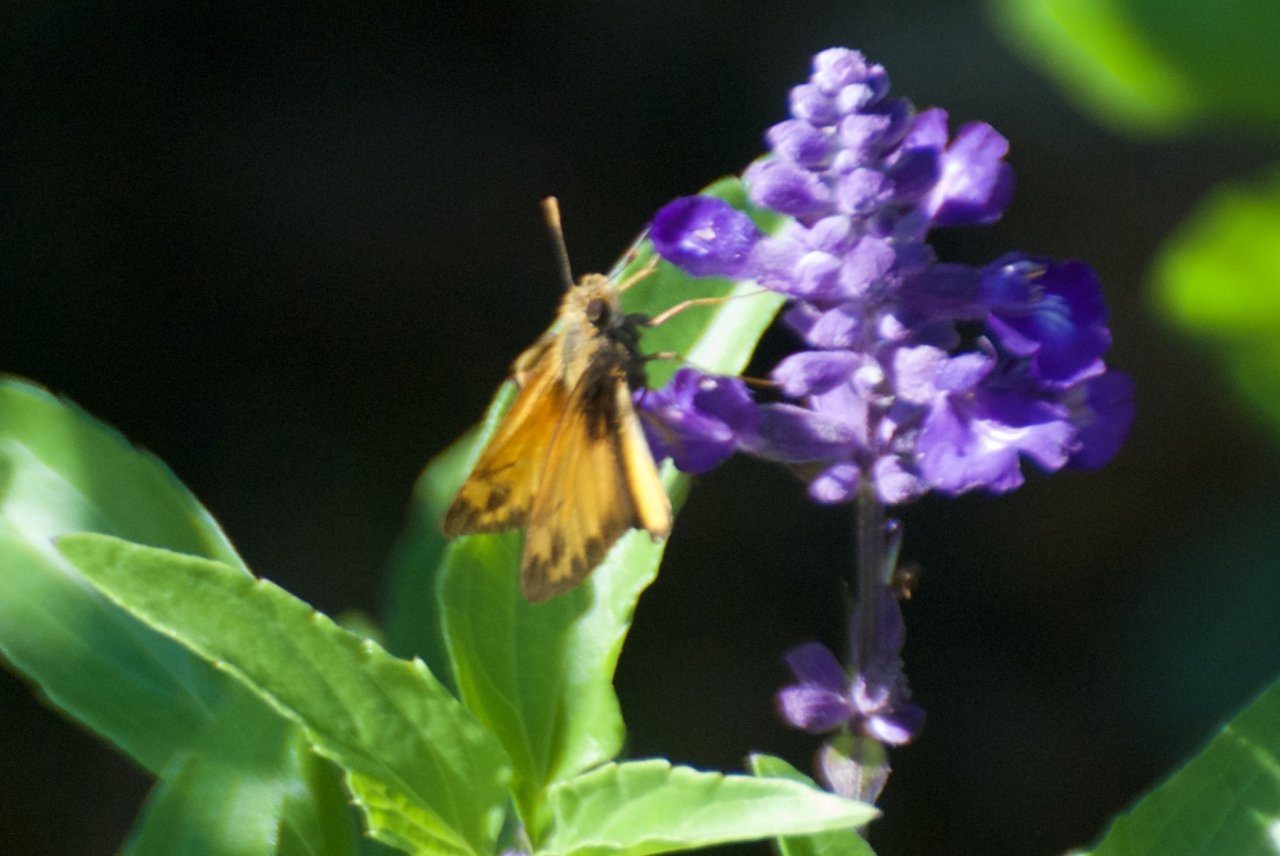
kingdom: Animalia
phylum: Arthropoda
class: Insecta
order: Lepidoptera
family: Hesperiidae
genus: Lon
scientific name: Lon zabulon
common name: Zabulon Skipper
